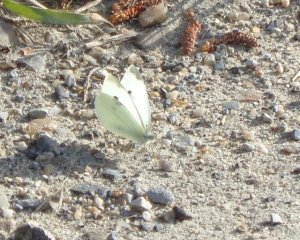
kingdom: Animalia
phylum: Arthropoda
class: Insecta
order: Lepidoptera
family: Pieridae
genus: Pieris
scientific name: Pieris rapae
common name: Cabbage White
